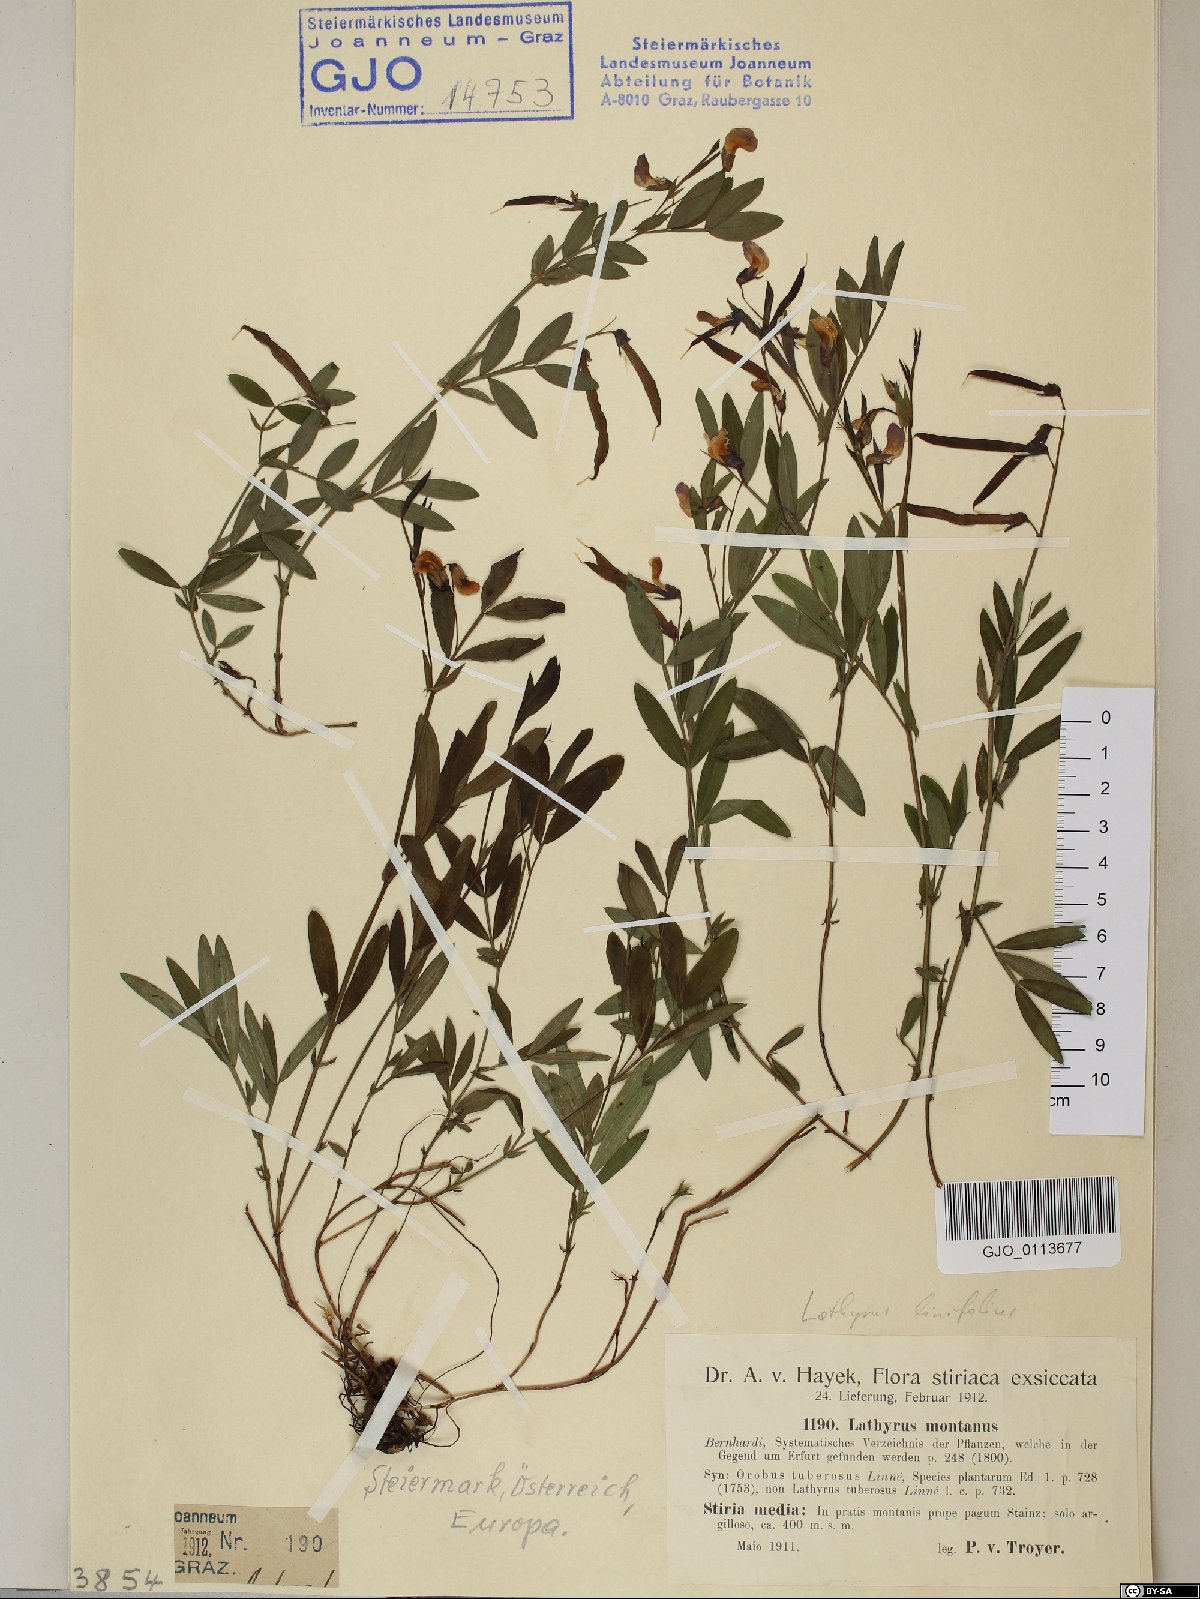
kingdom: Plantae
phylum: Tracheophyta
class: Magnoliopsida
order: Fabales
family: Fabaceae
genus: Lathyrus
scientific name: Lathyrus linifolius
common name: Bitter-vetch
